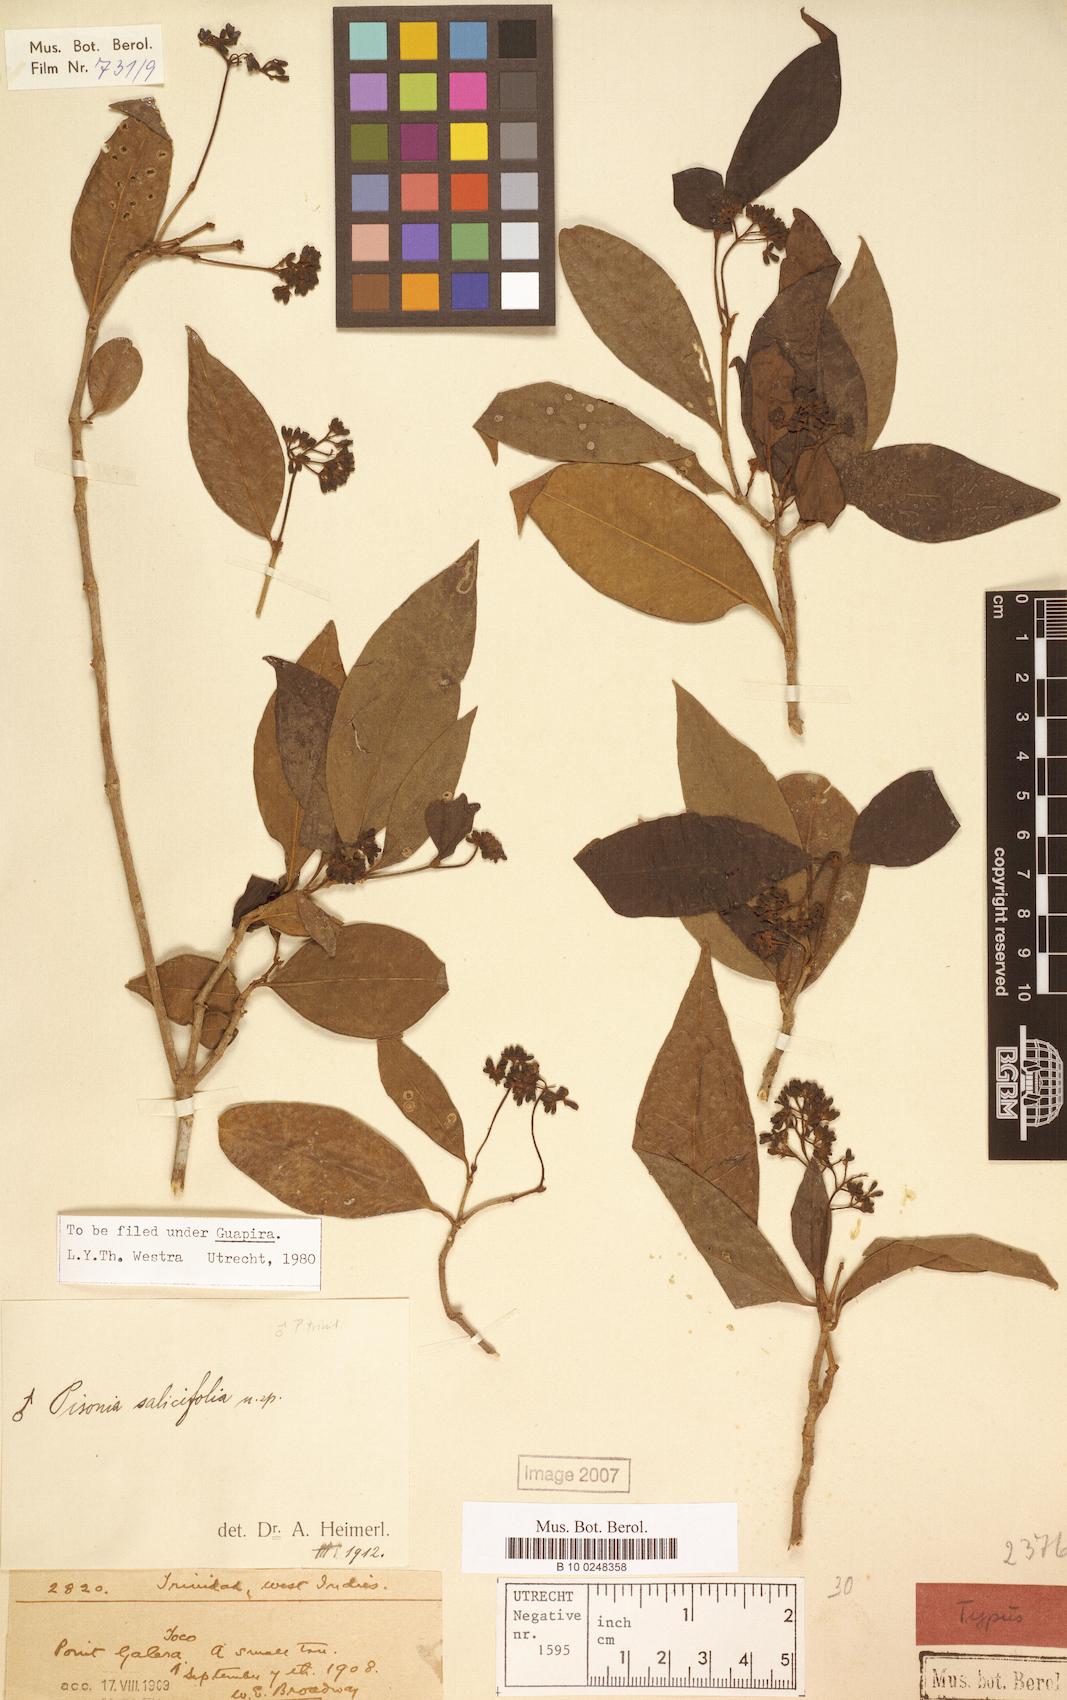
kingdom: Plantae
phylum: Tracheophyta
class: Magnoliopsida
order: Caryophyllales
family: Nyctaginaceae
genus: Guapira
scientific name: Guapira salicifolia
